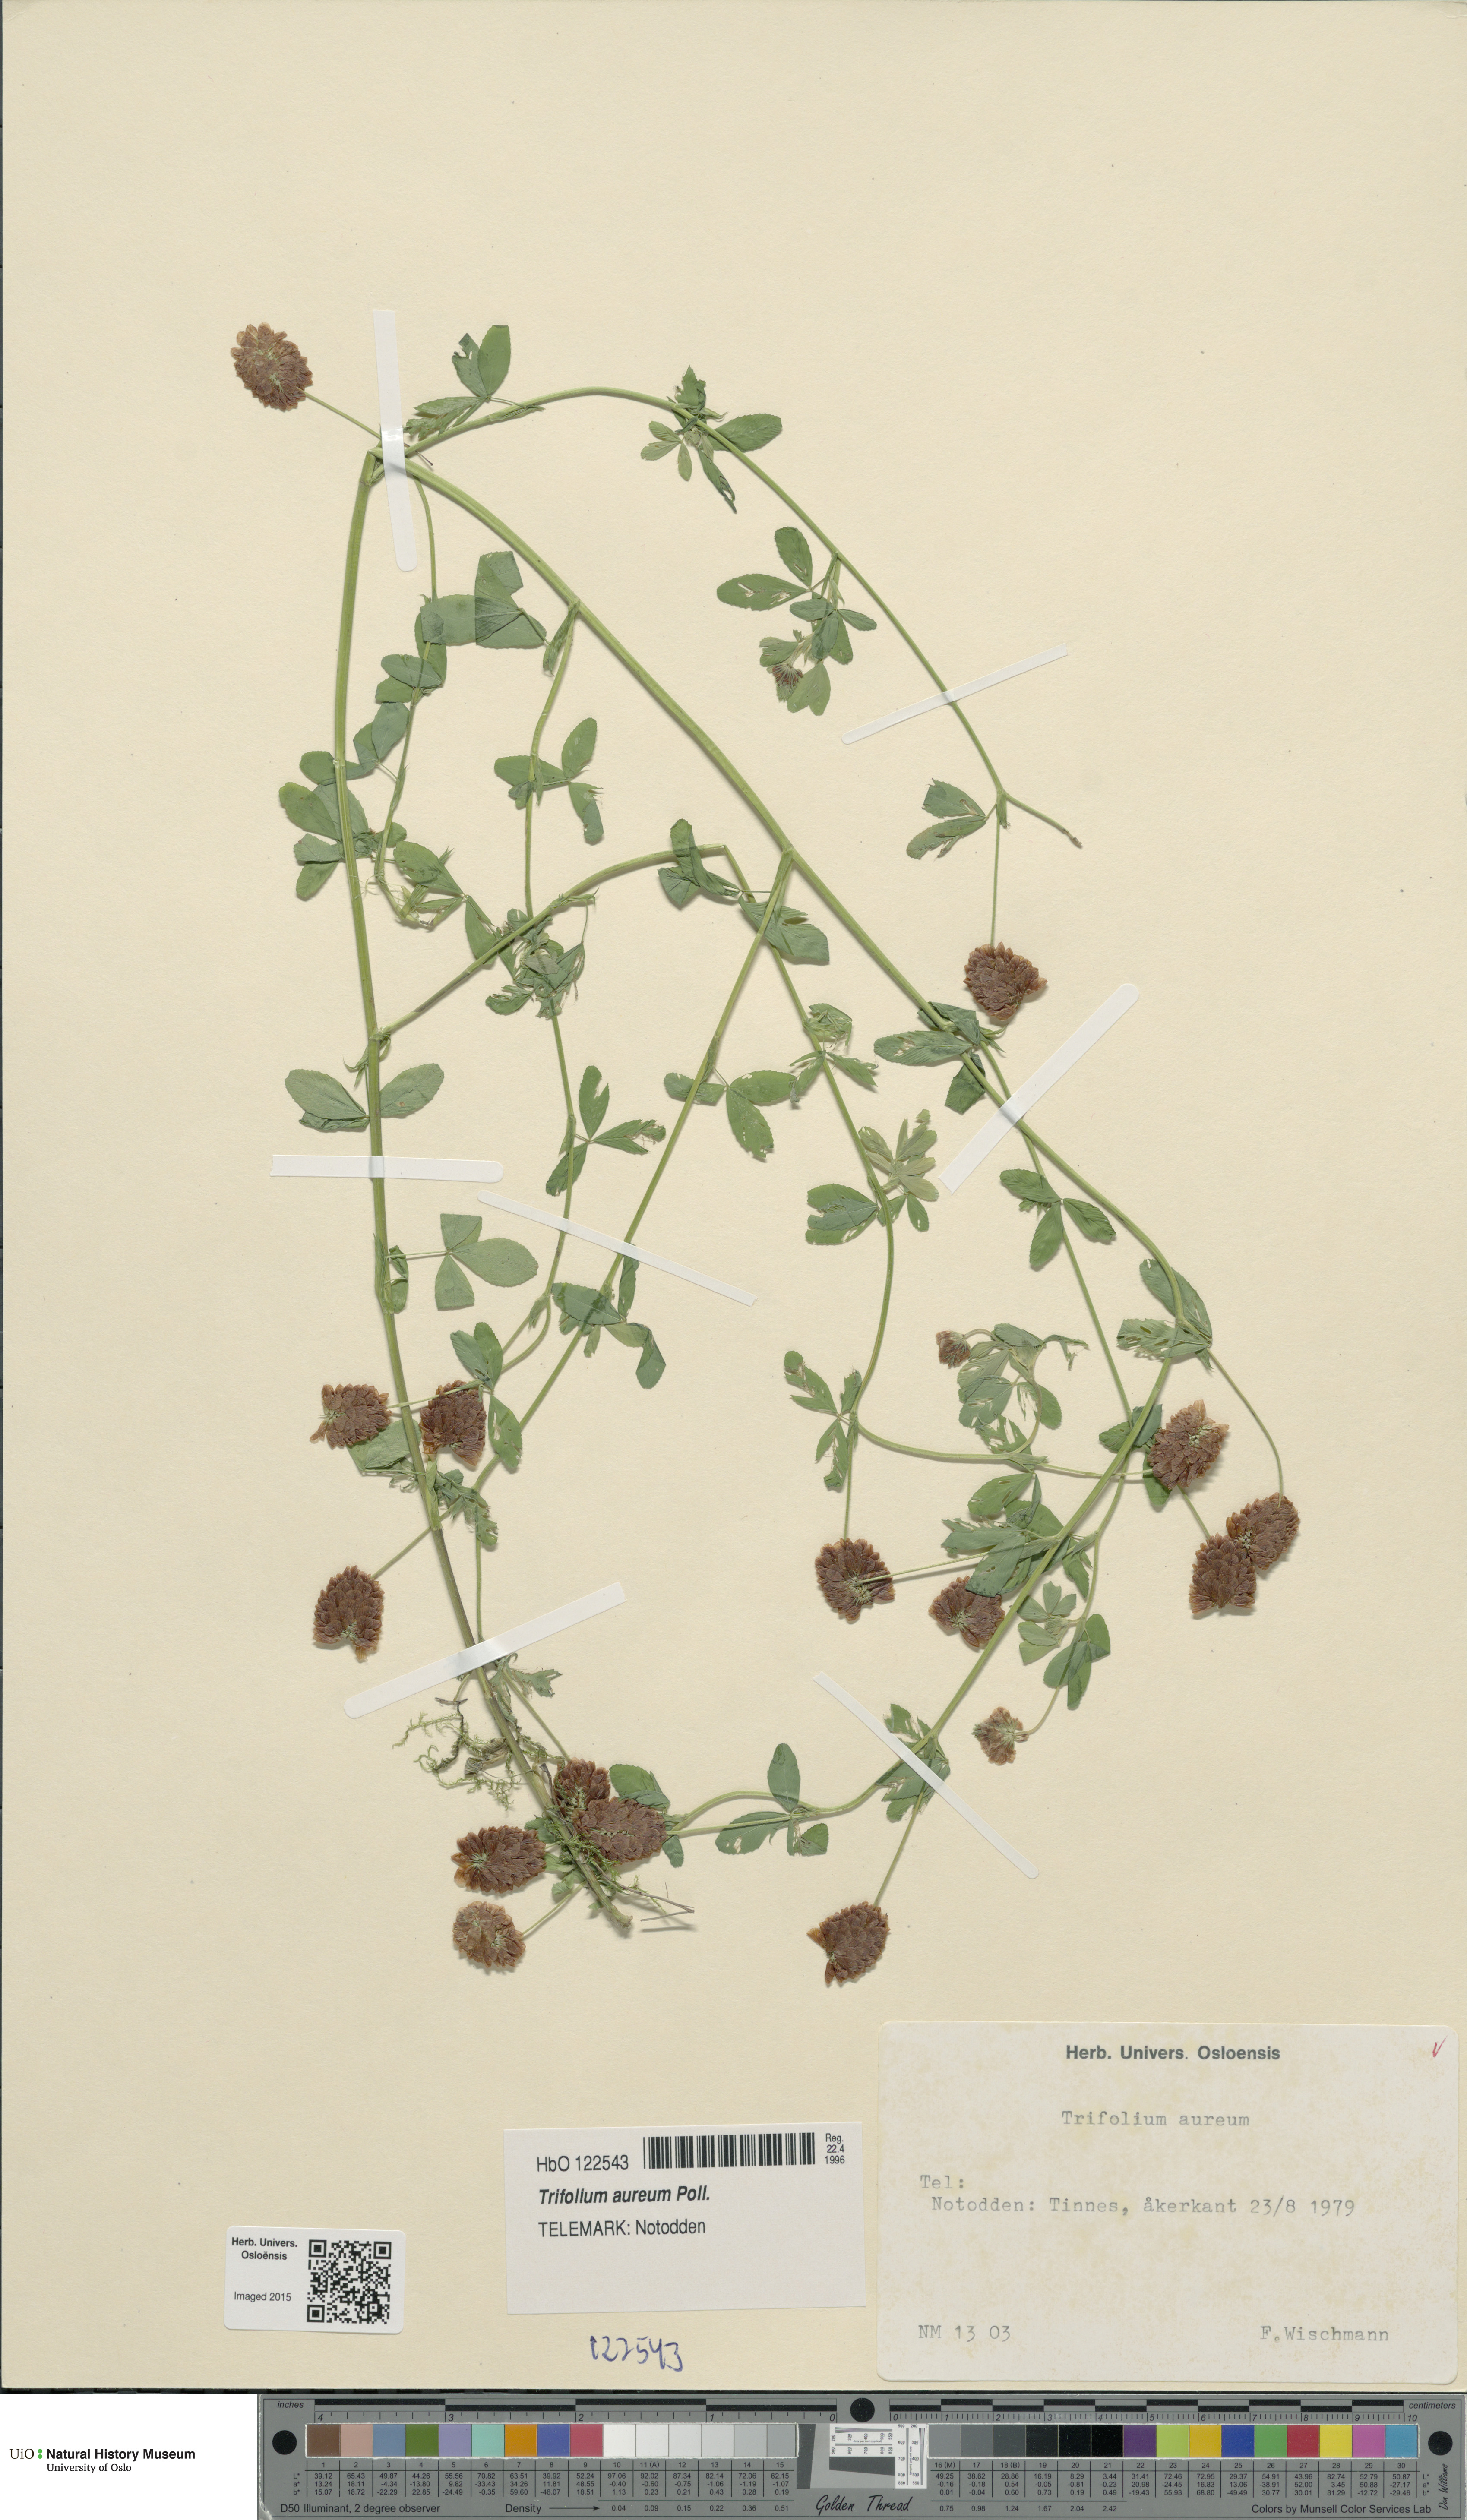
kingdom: Plantae
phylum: Tracheophyta
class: Magnoliopsida
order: Fabales
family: Fabaceae
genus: Trifolium
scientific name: Trifolium aureum
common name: Golden clover
